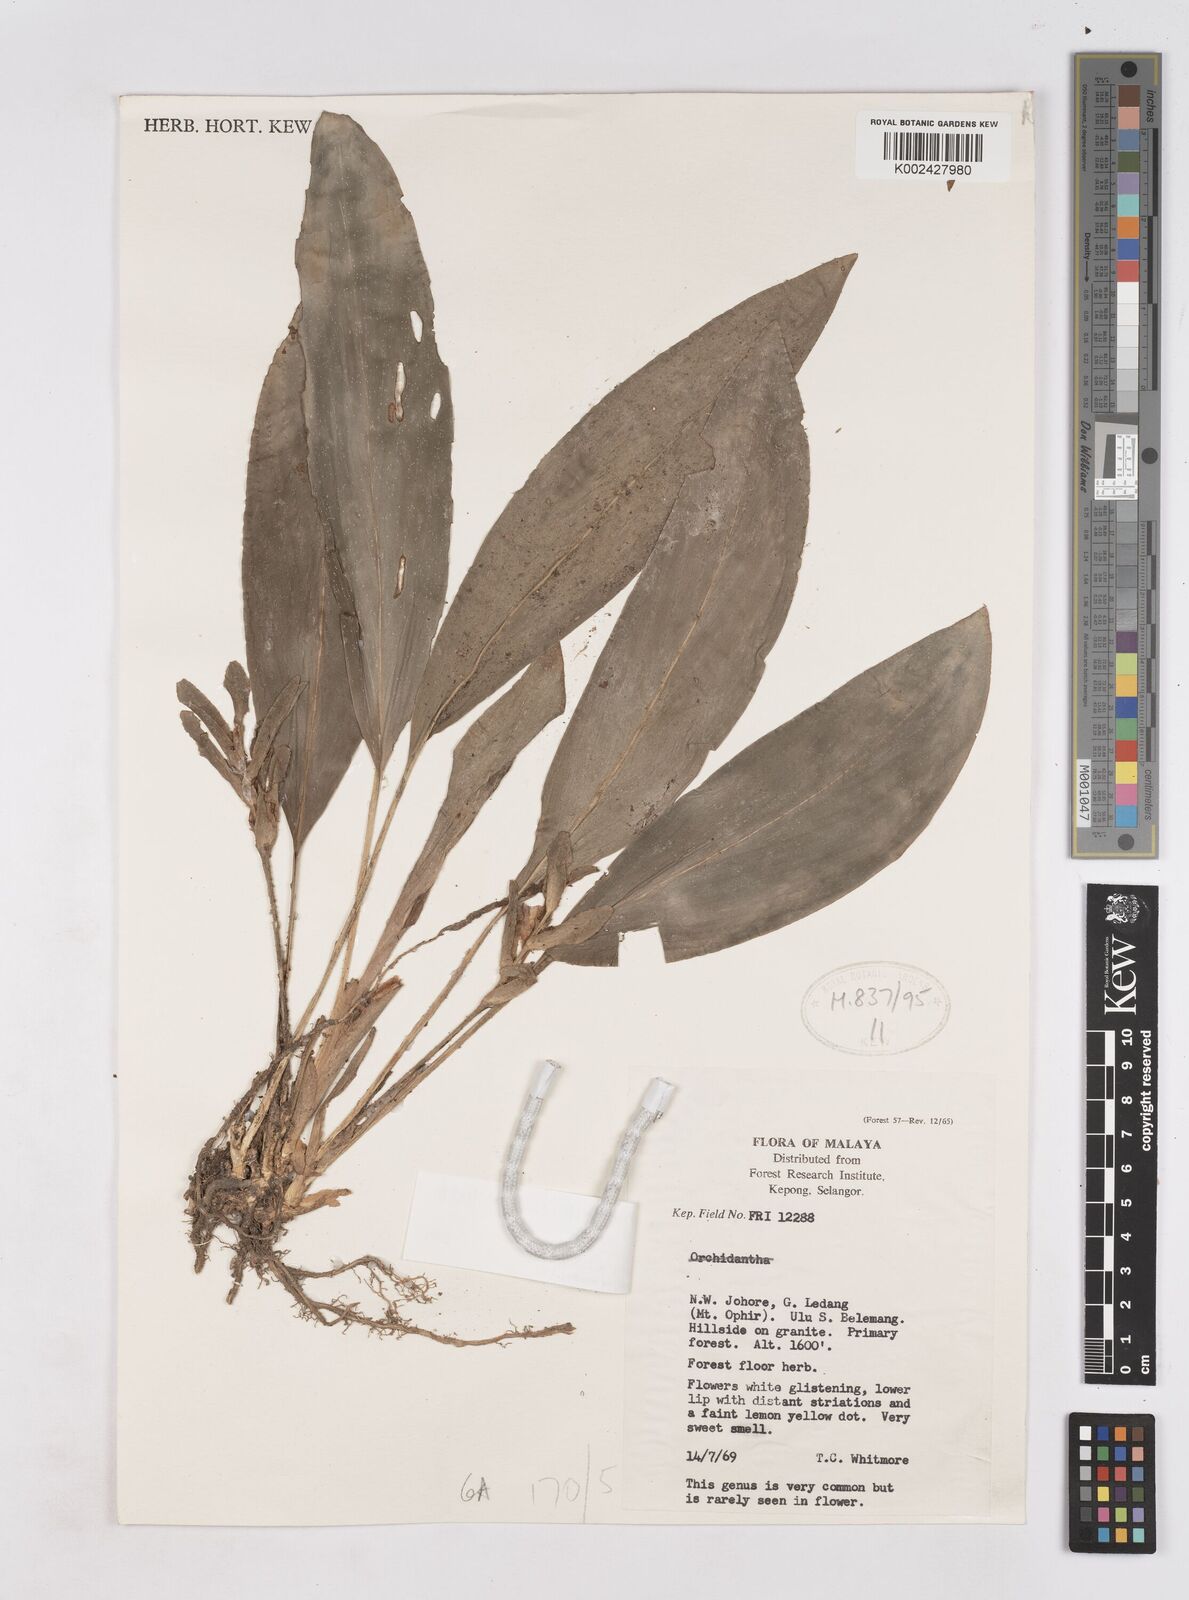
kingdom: Plantae
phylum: Tracheophyta
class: Liliopsida
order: Zingiberales
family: Zingiberaceae
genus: Scaphochlamys
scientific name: Scaphochlamys erecta
